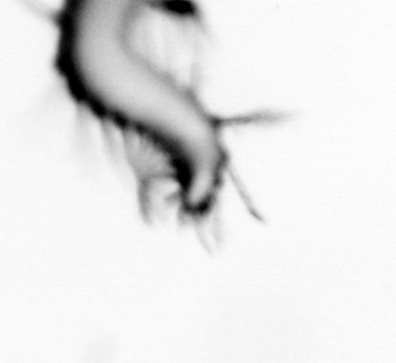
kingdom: Animalia
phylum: Annelida
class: Polychaeta
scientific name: Polychaeta
